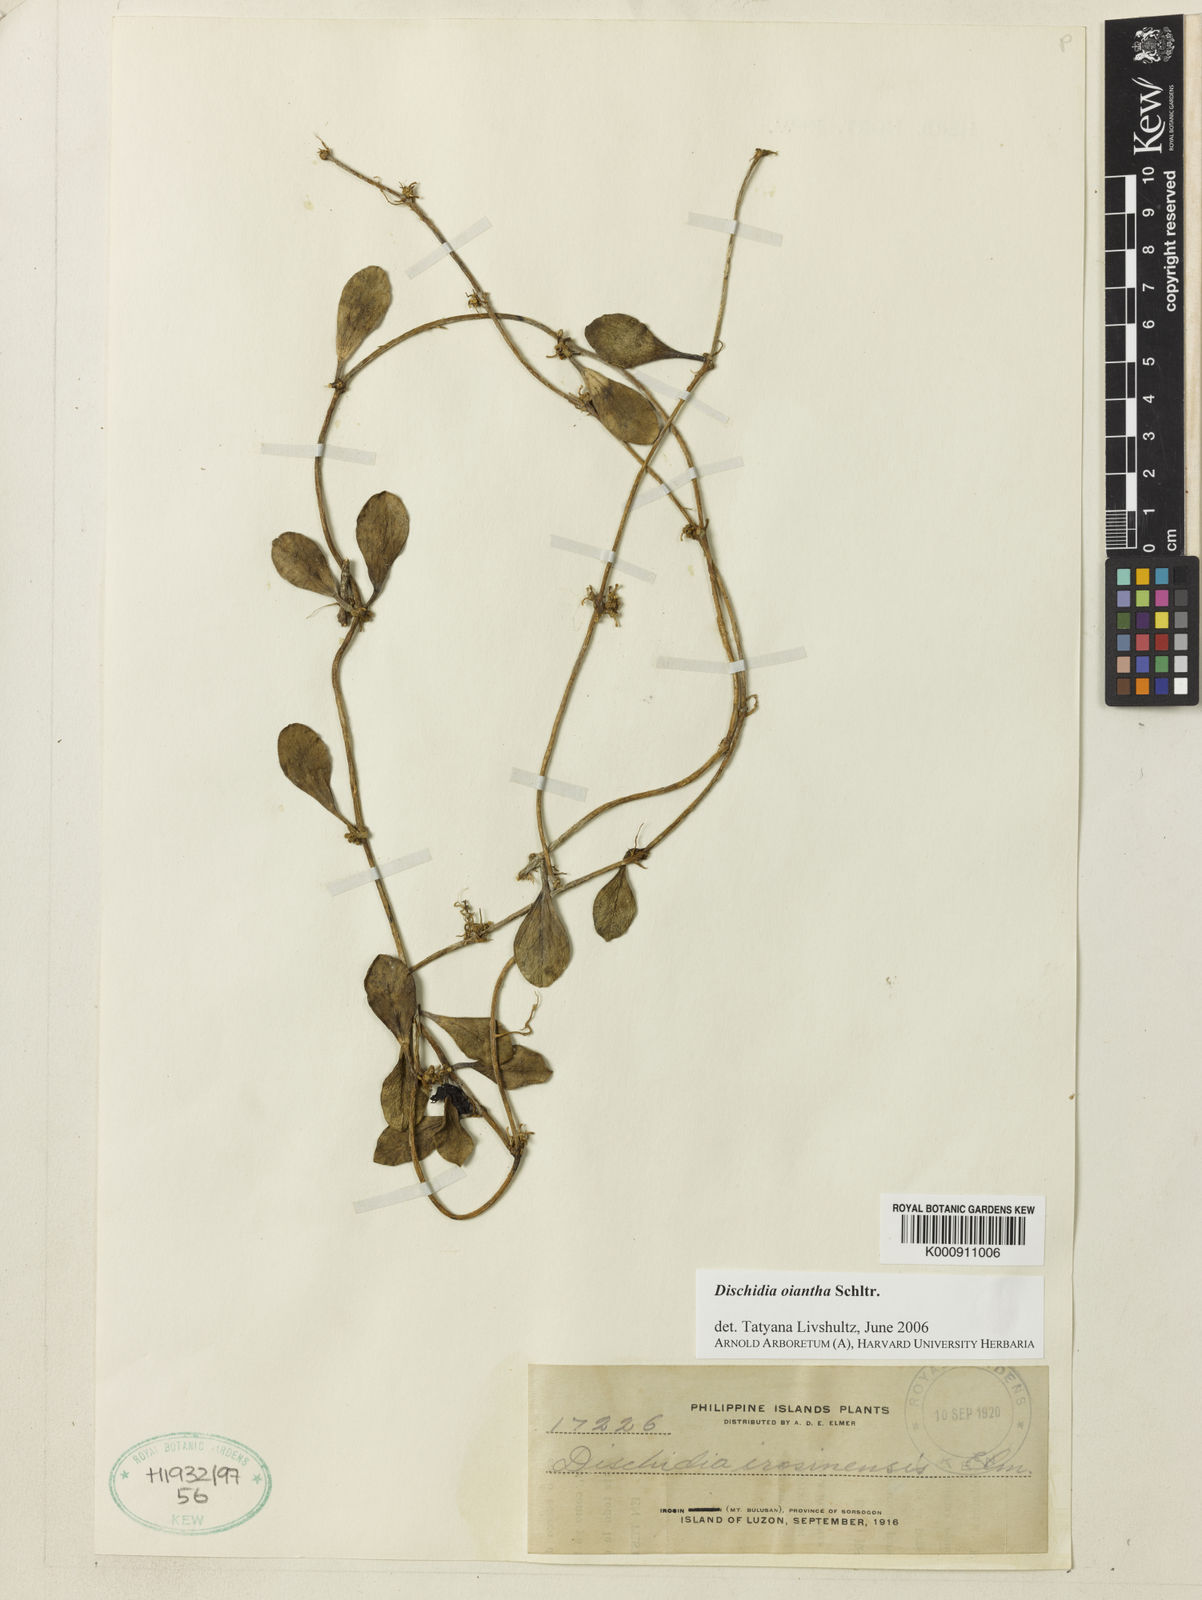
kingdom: Plantae
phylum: Tracheophyta
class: Magnoliopsida
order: Gentianales
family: Apocynaceae
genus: Dischidia
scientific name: Dischidia oiantha
